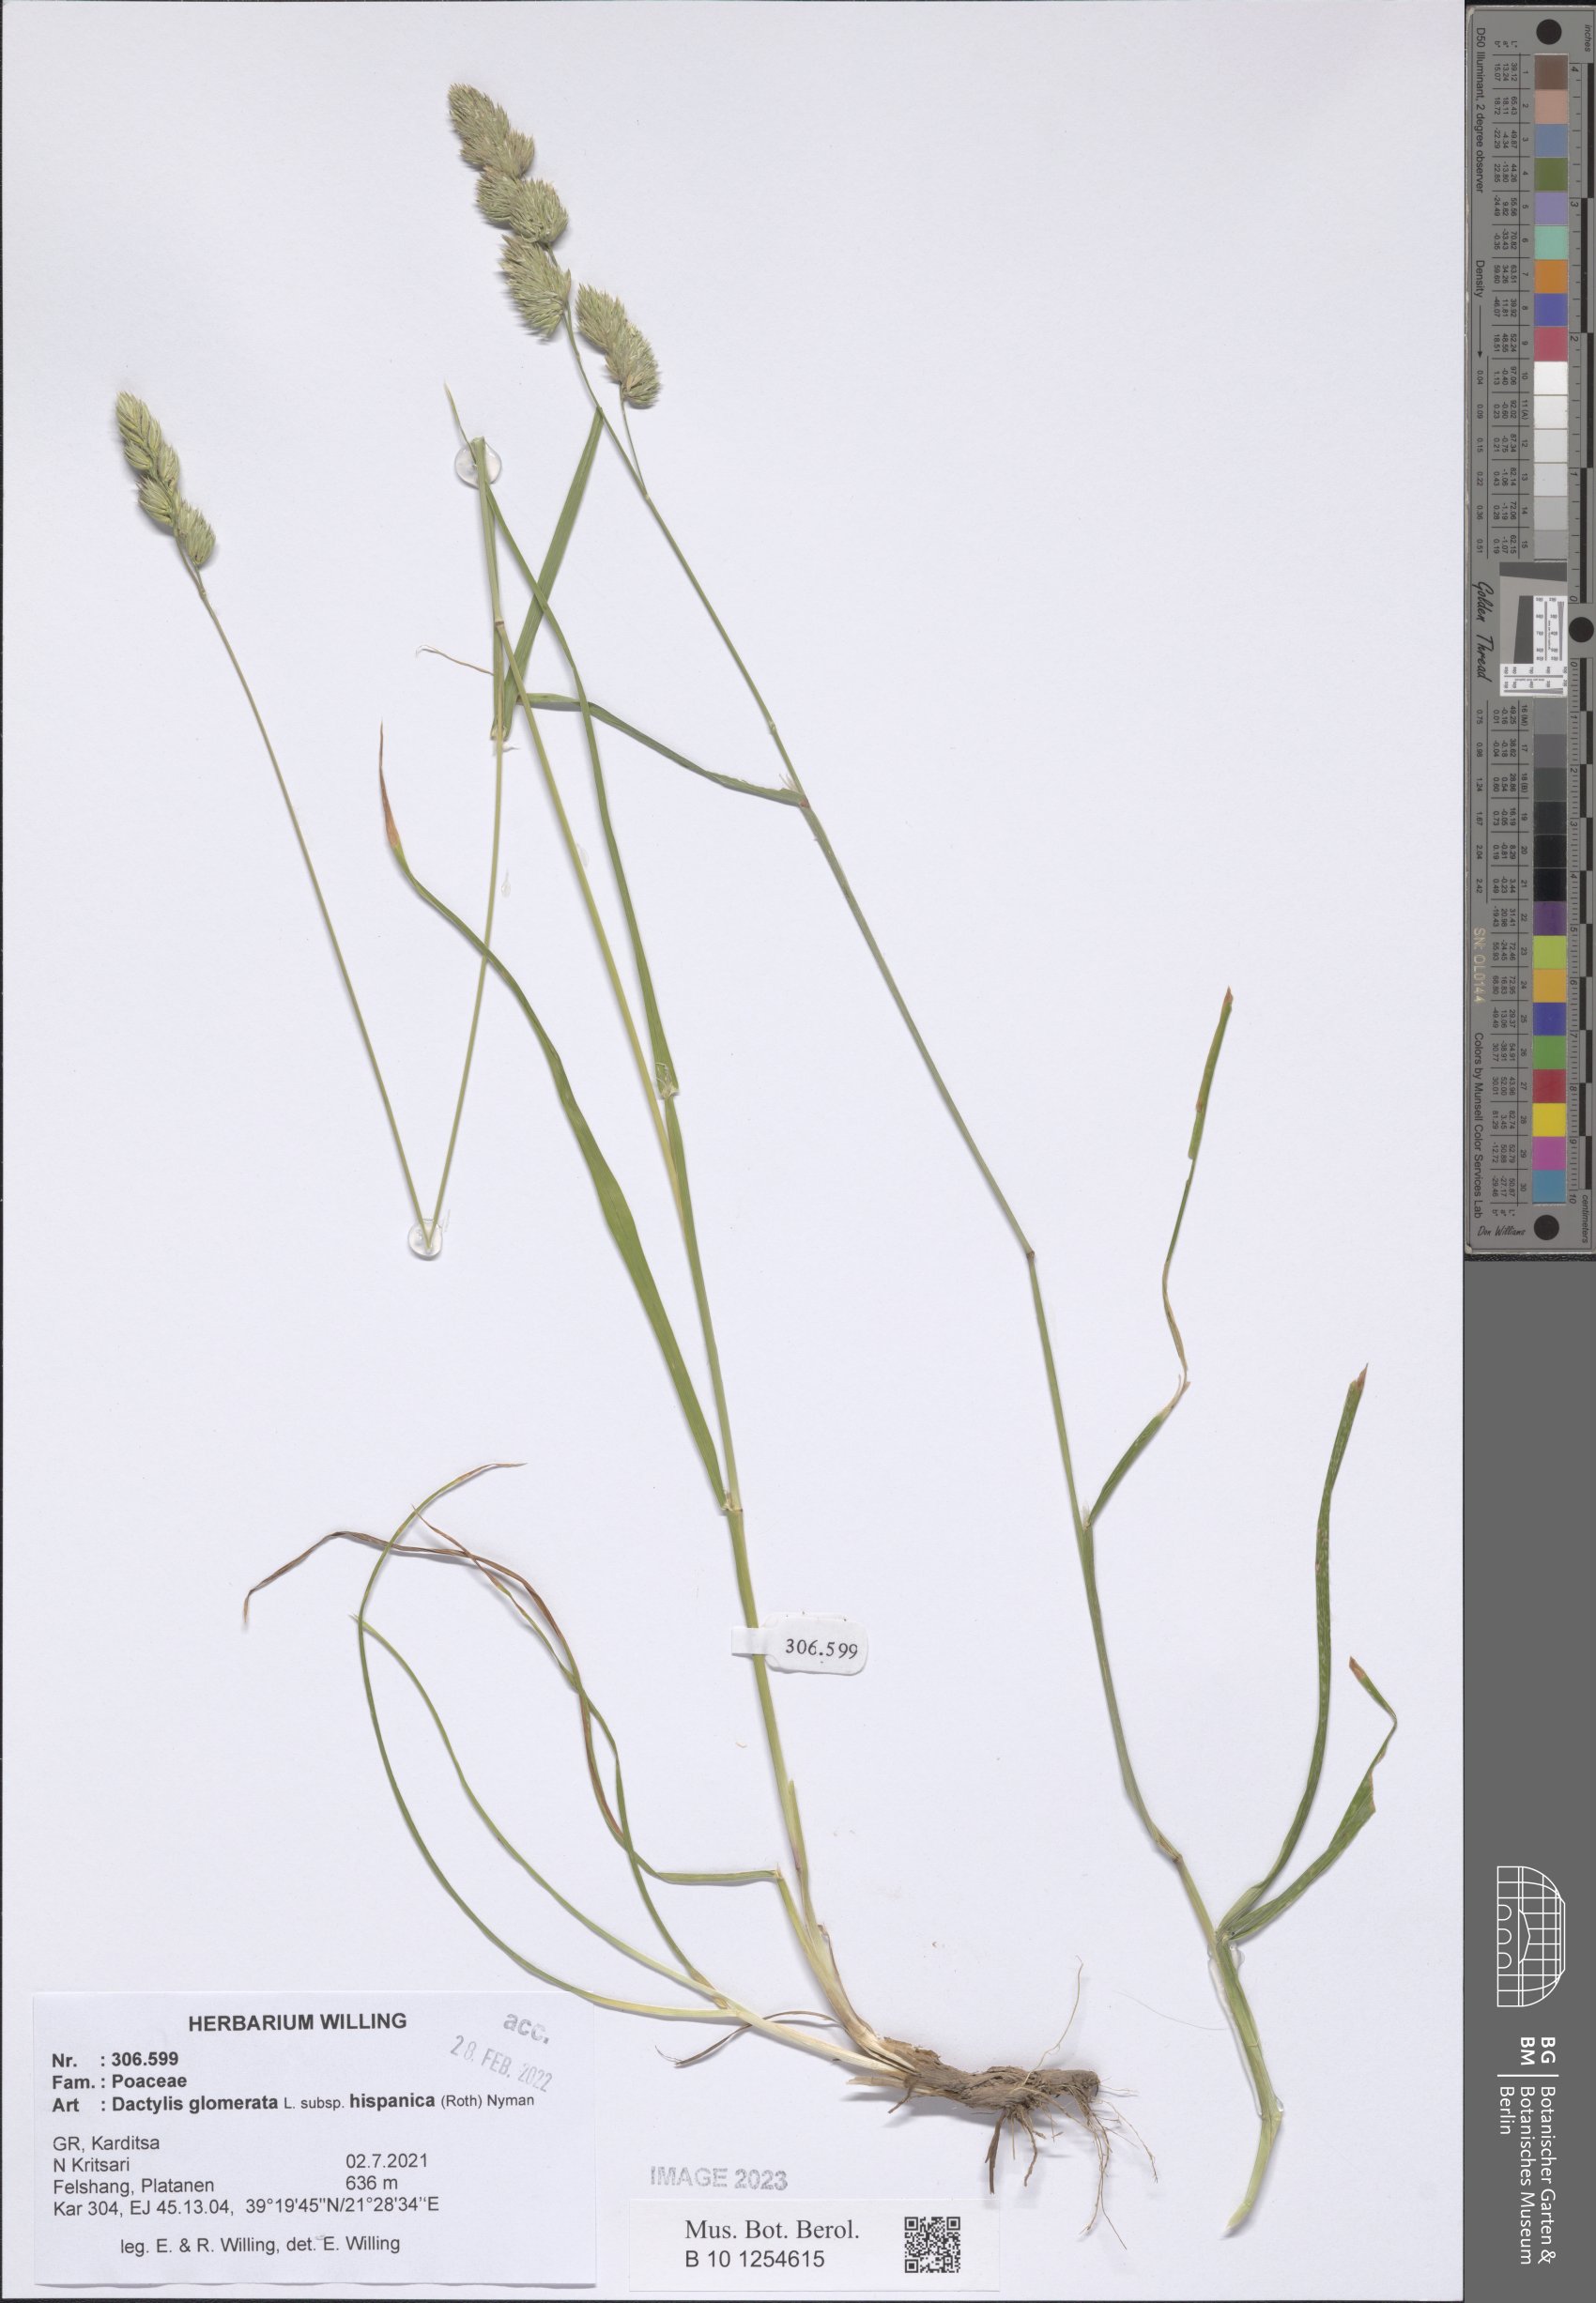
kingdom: Plantae
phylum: Tracheophyta
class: Liliopsida
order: Poales
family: Poaceae
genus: Dactylis
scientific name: Dactylis glomerata
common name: Orchardgrass
